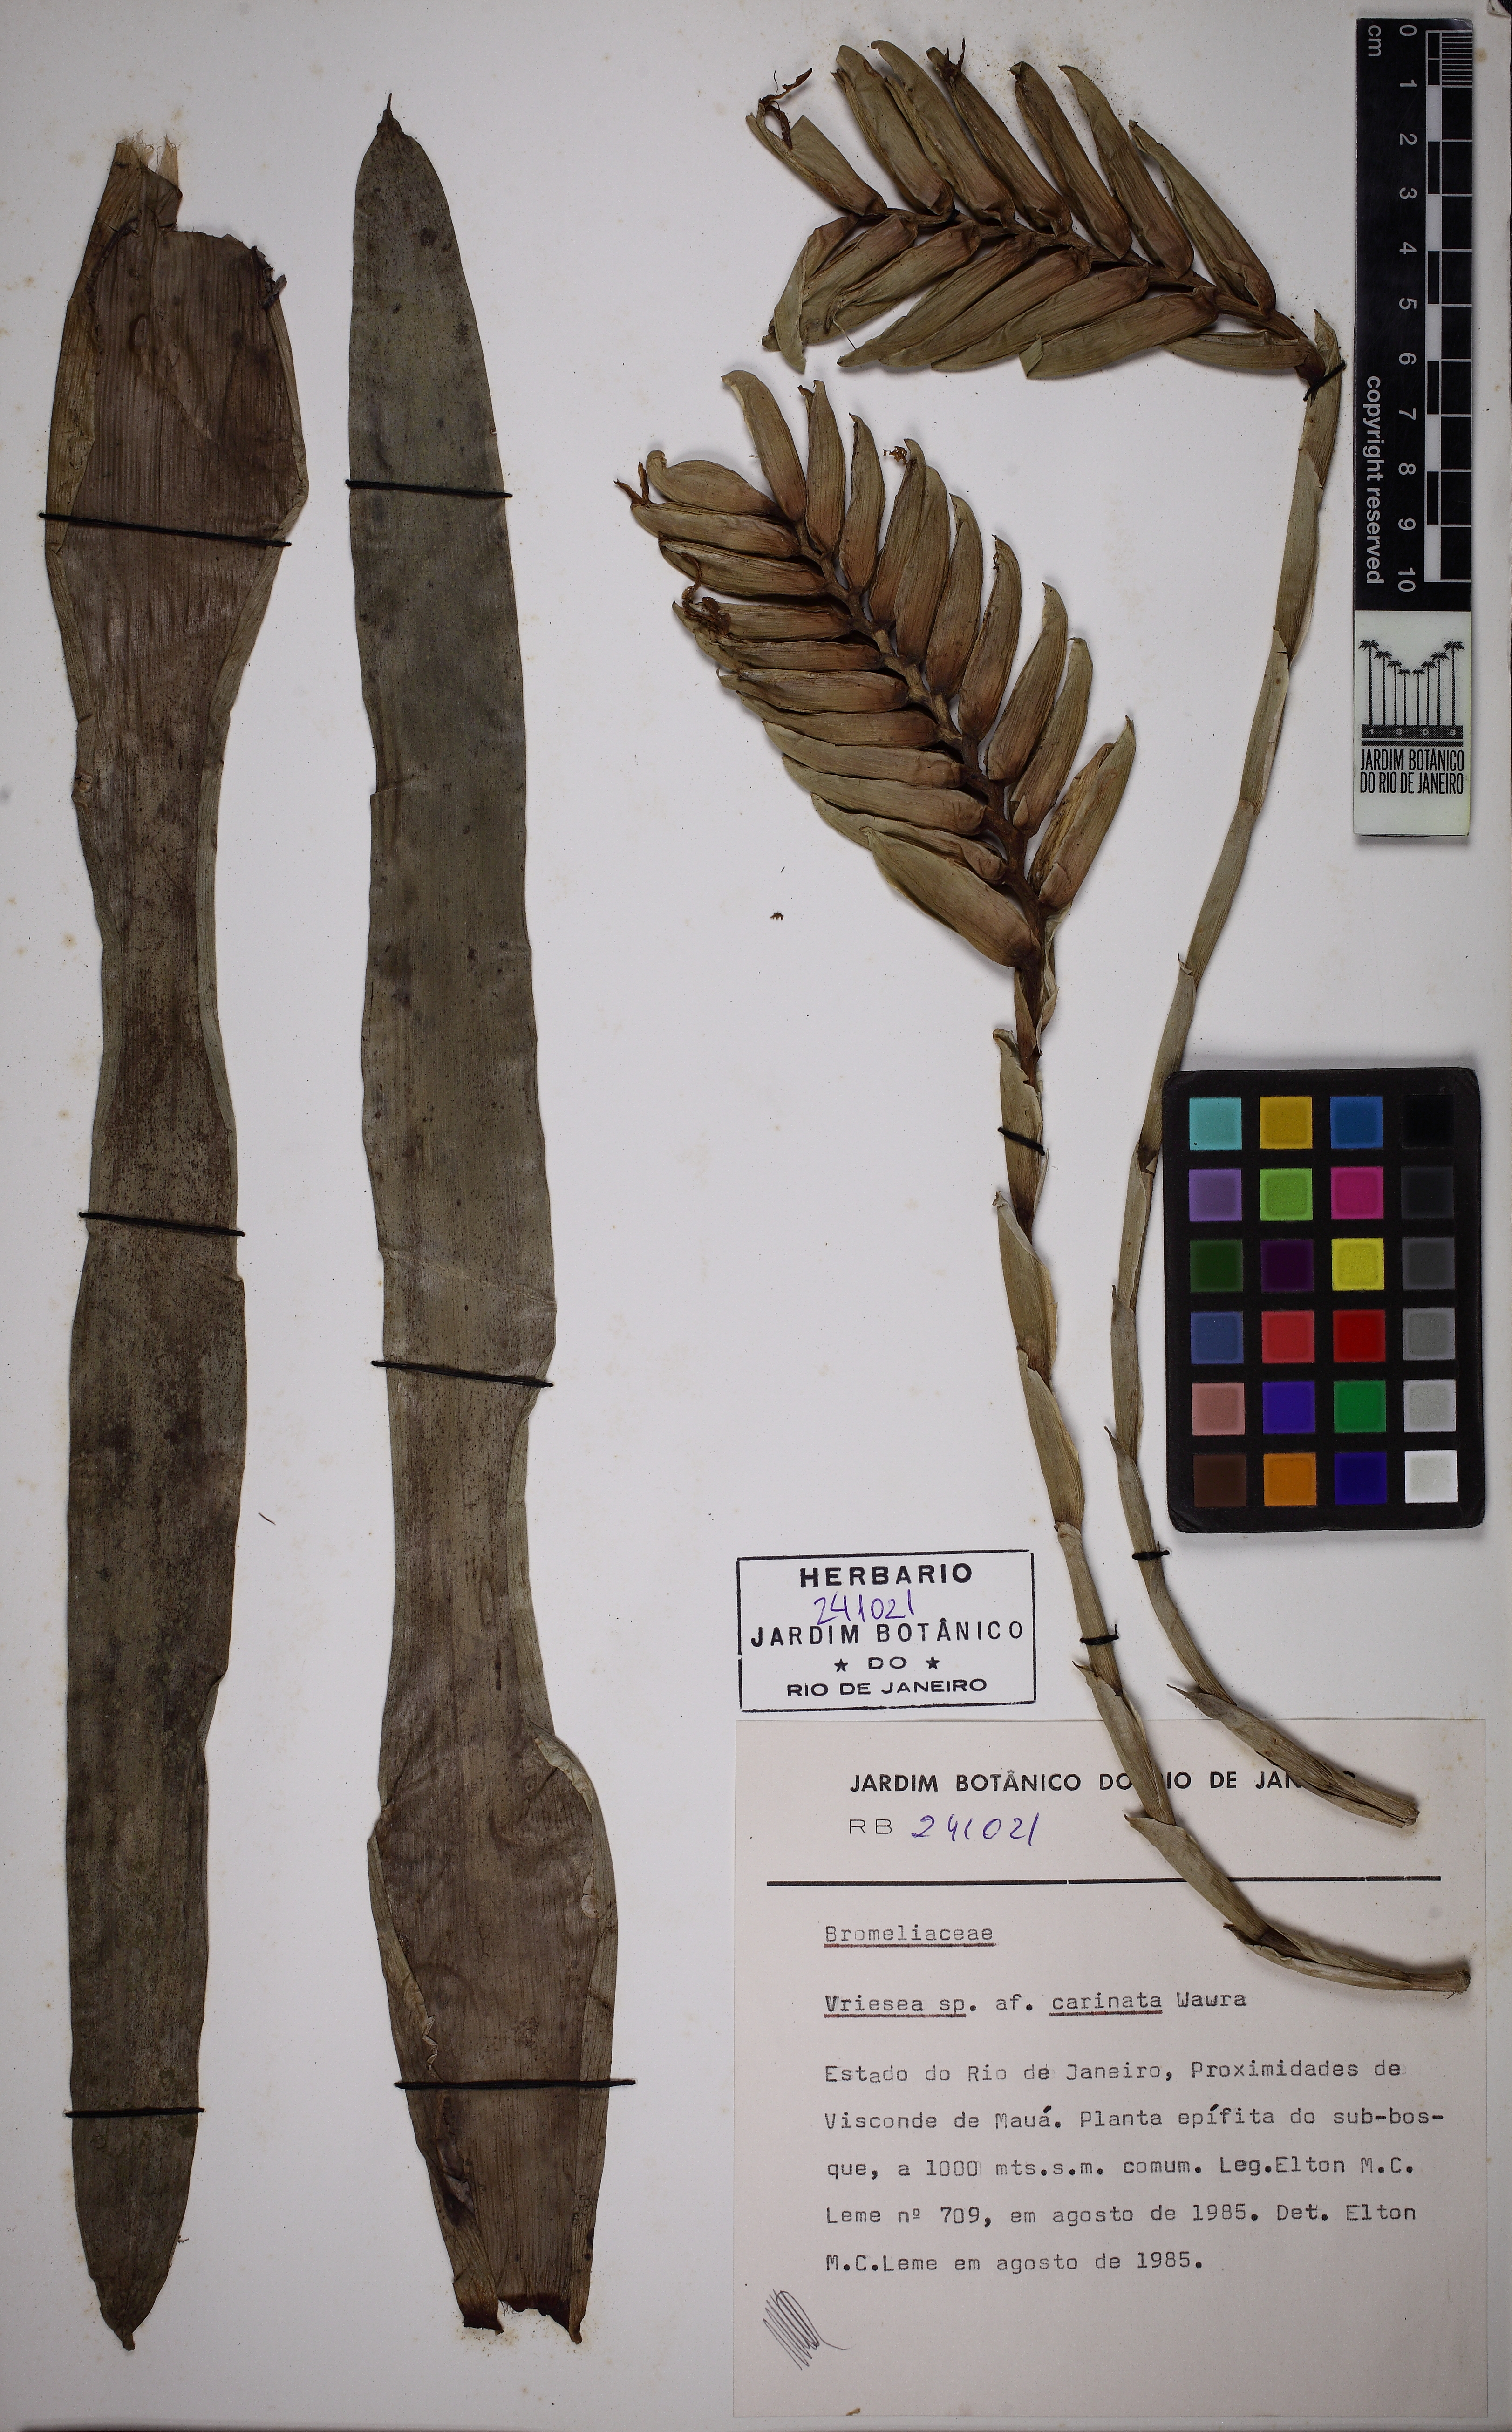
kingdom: Plantae
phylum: Tracheophyta
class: Liliopsida
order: Poales
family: Bromeliaceae
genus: Vriesea
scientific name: Vriesea interrogatoria
